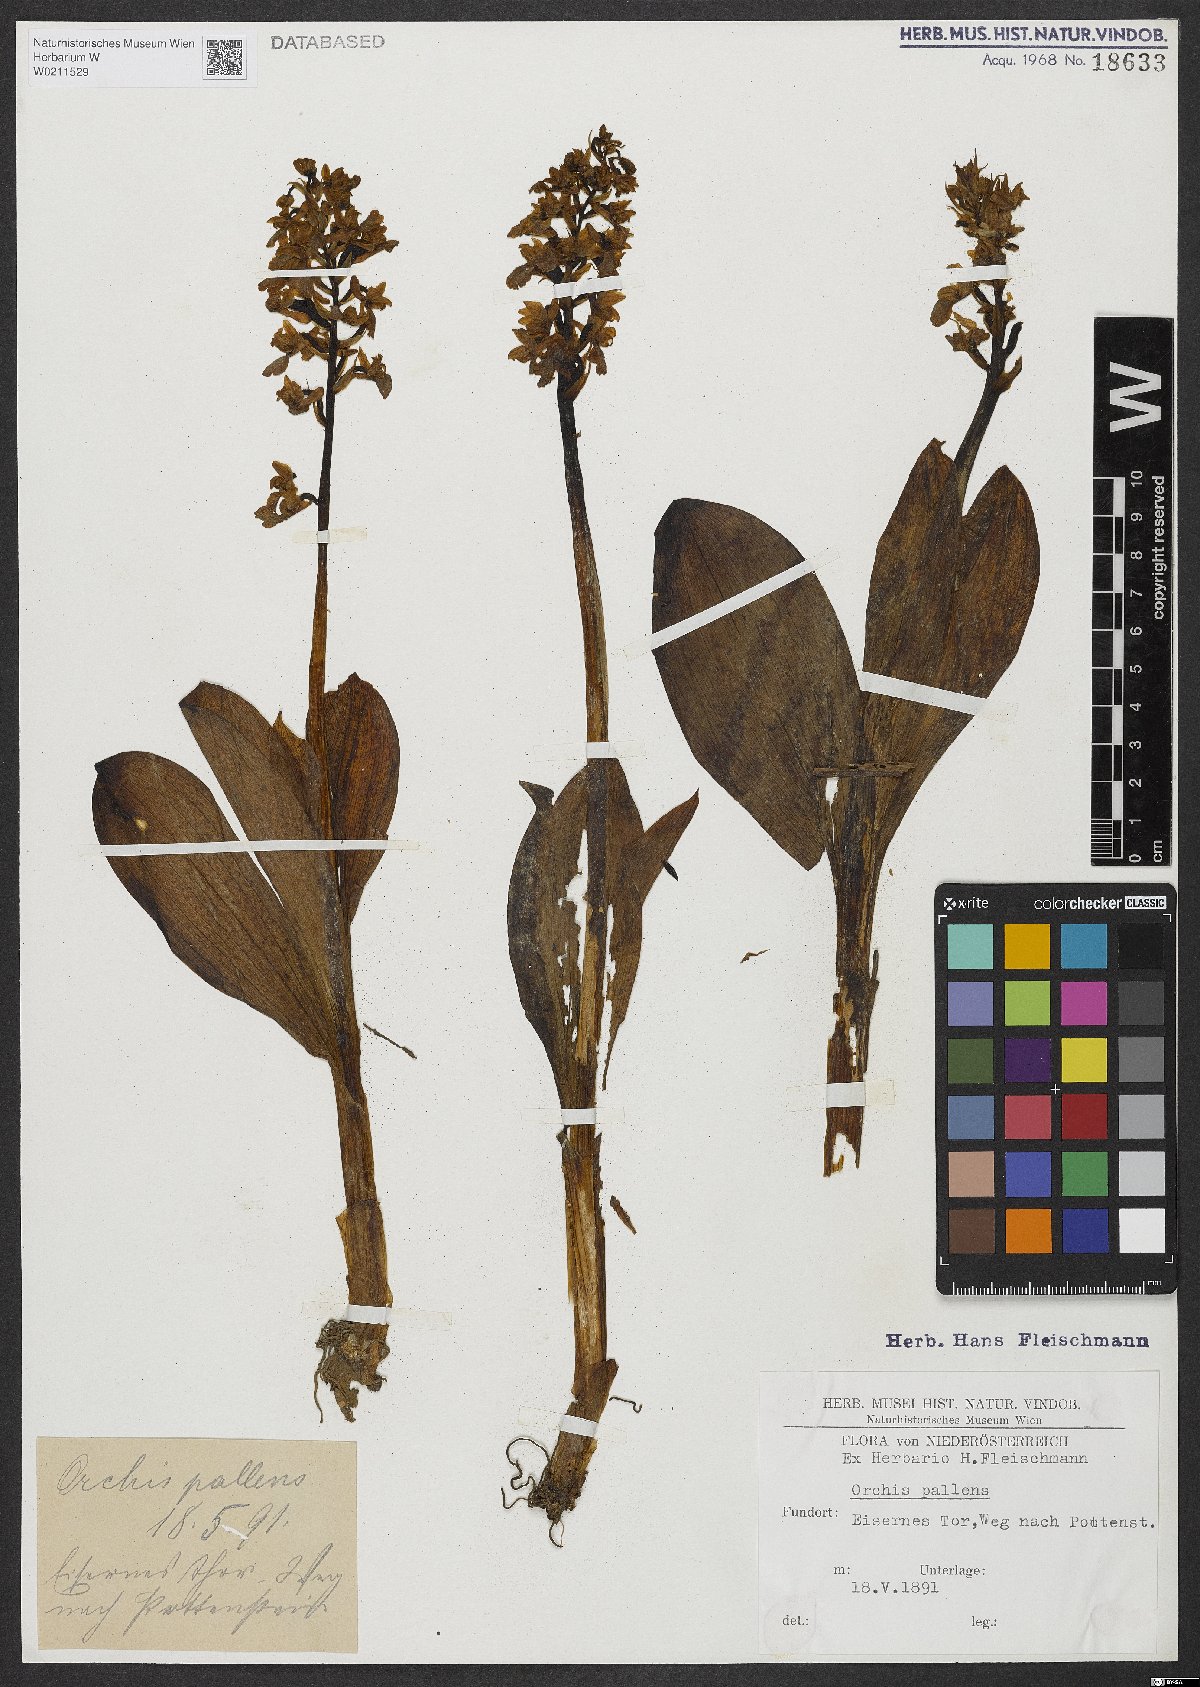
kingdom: Plantae
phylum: Tracheophyta
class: Liliopsida
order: Asparagales
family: Orchidaceae
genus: Orchis
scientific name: Orchis pallens
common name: Pale-flowered orchid
